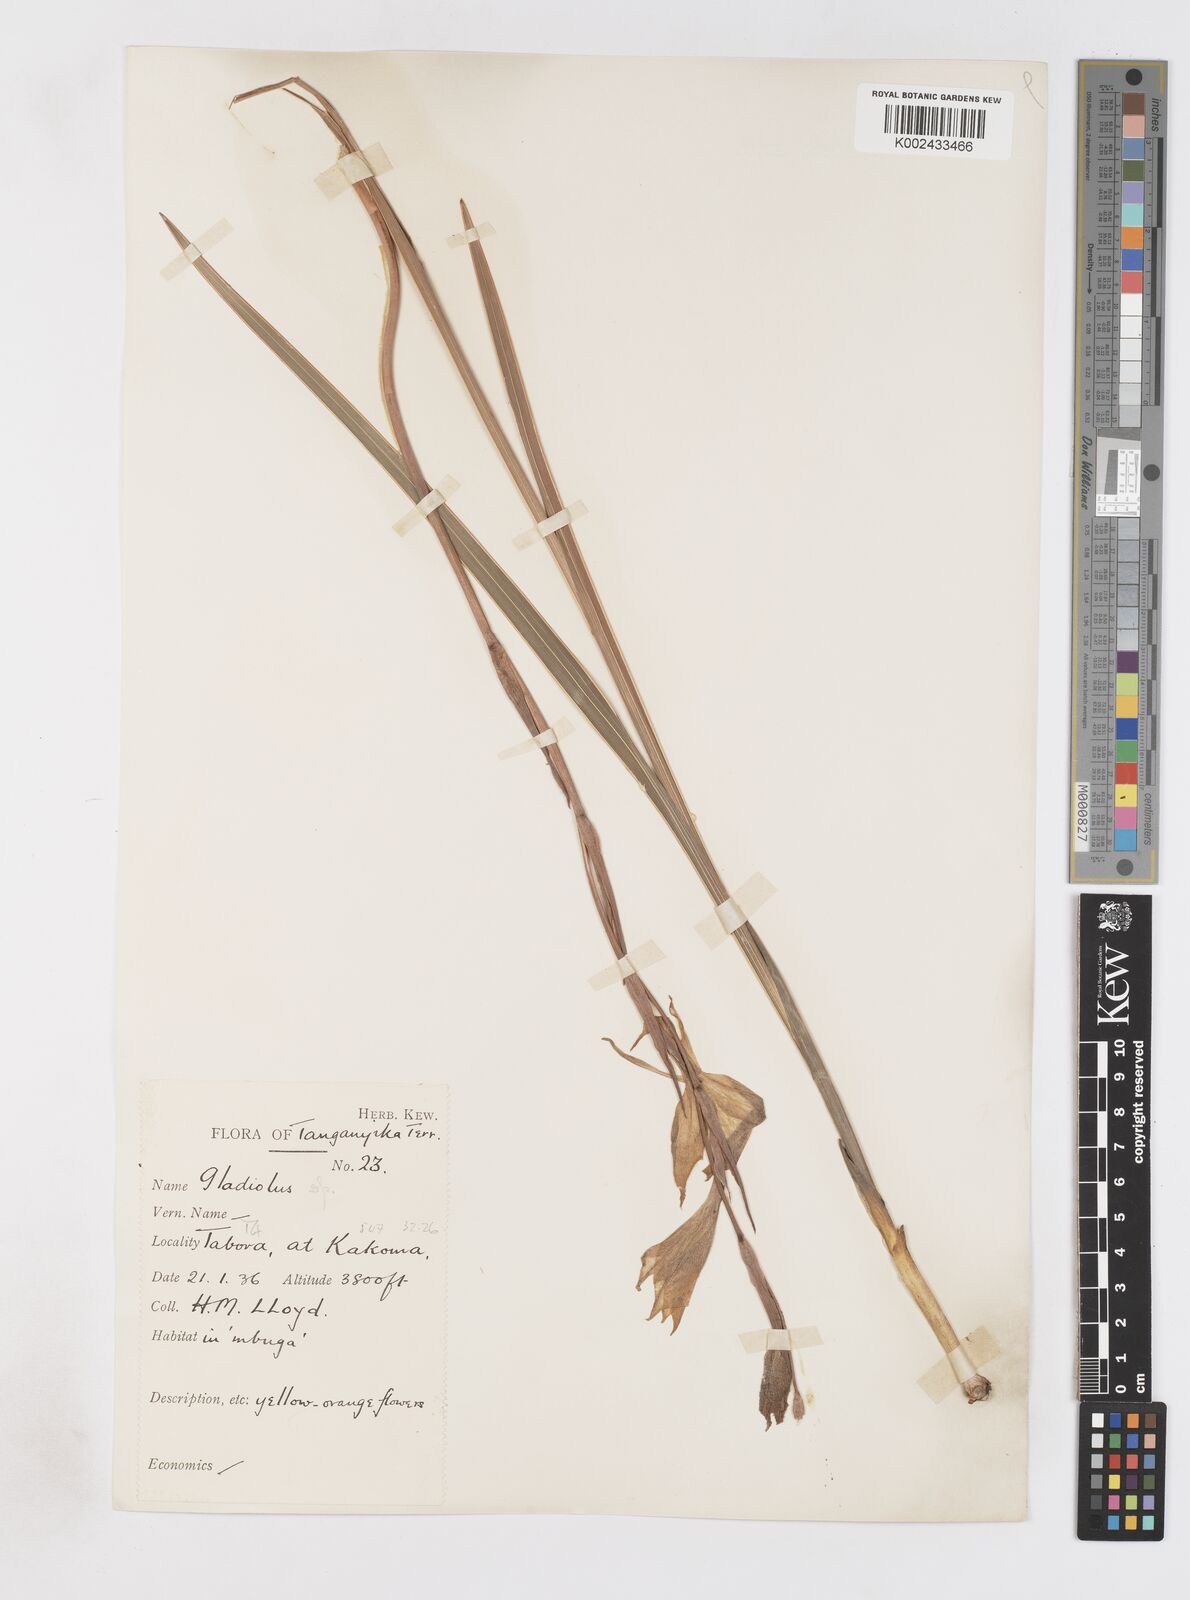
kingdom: Plantae
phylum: Tracheophyta
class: Liliopsida
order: Asparagales
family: Iridaceae
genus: Gladiolus
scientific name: Gladiolus dalenii
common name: Cornflag
